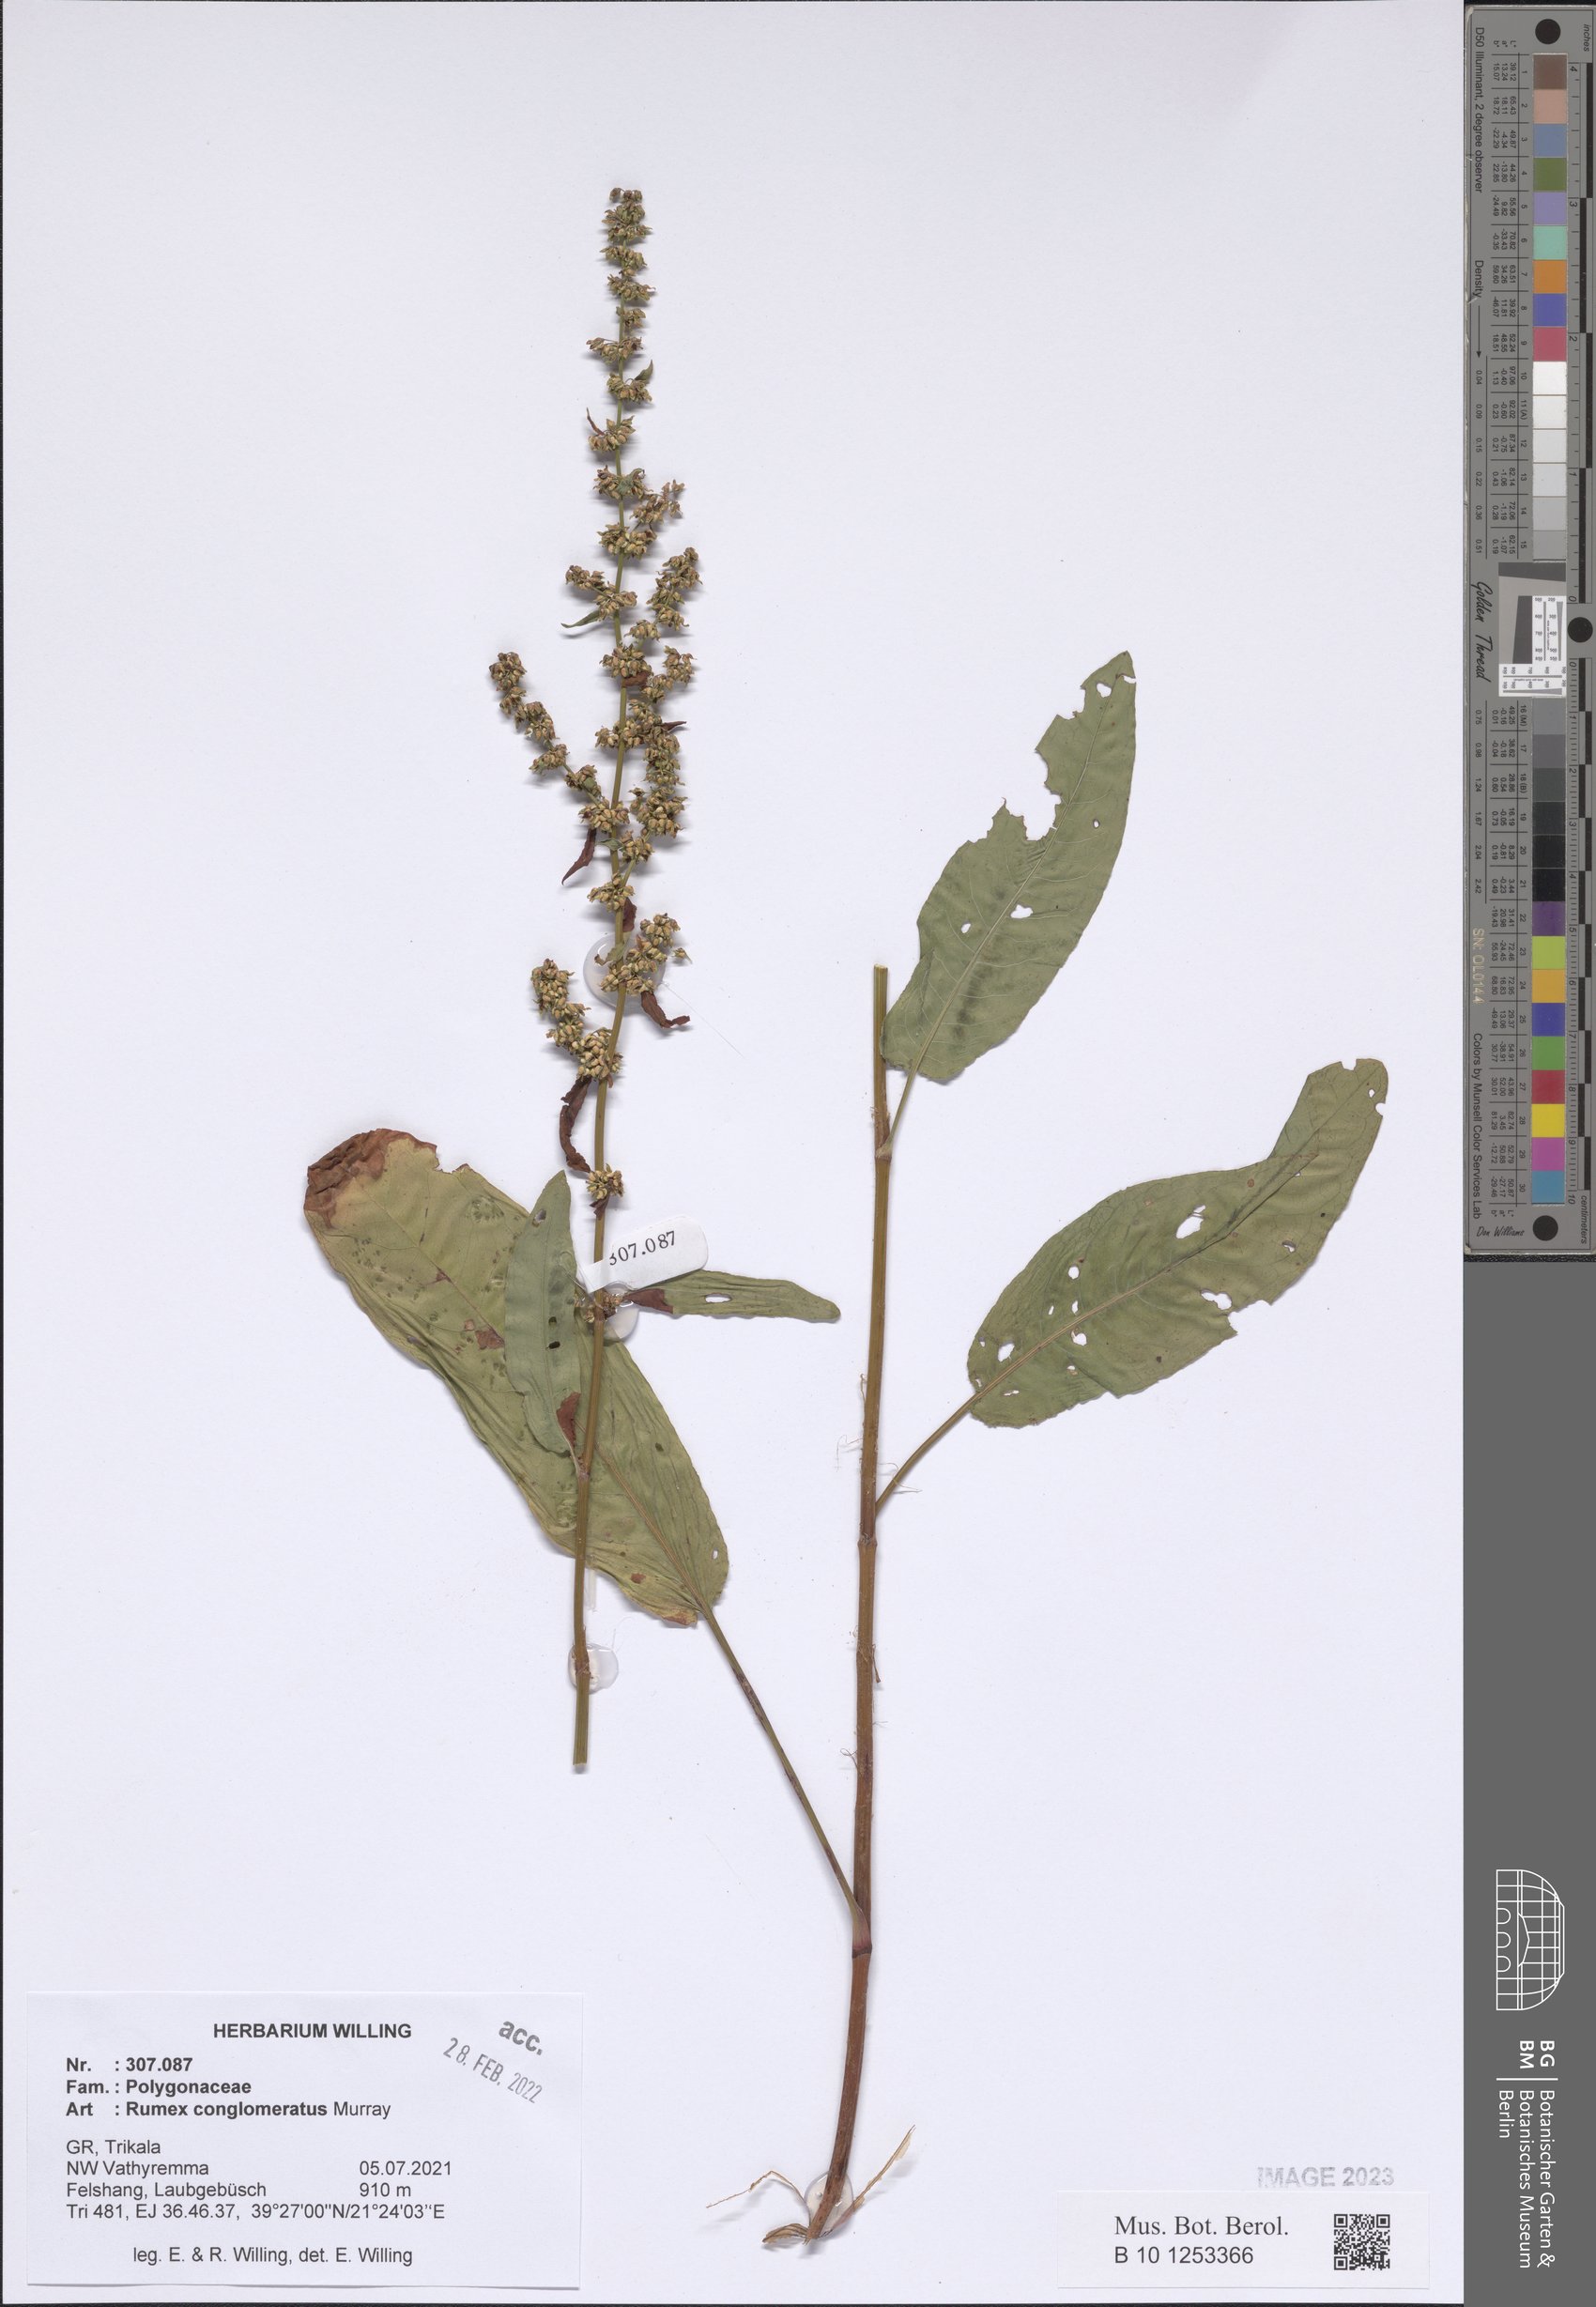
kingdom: Plantae
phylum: Tracheophyta
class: Magnoliopsida
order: Caryophyllales
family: Polygonaceae
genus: Rumex
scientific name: Rumex conglomeratus
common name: Clustered dock
